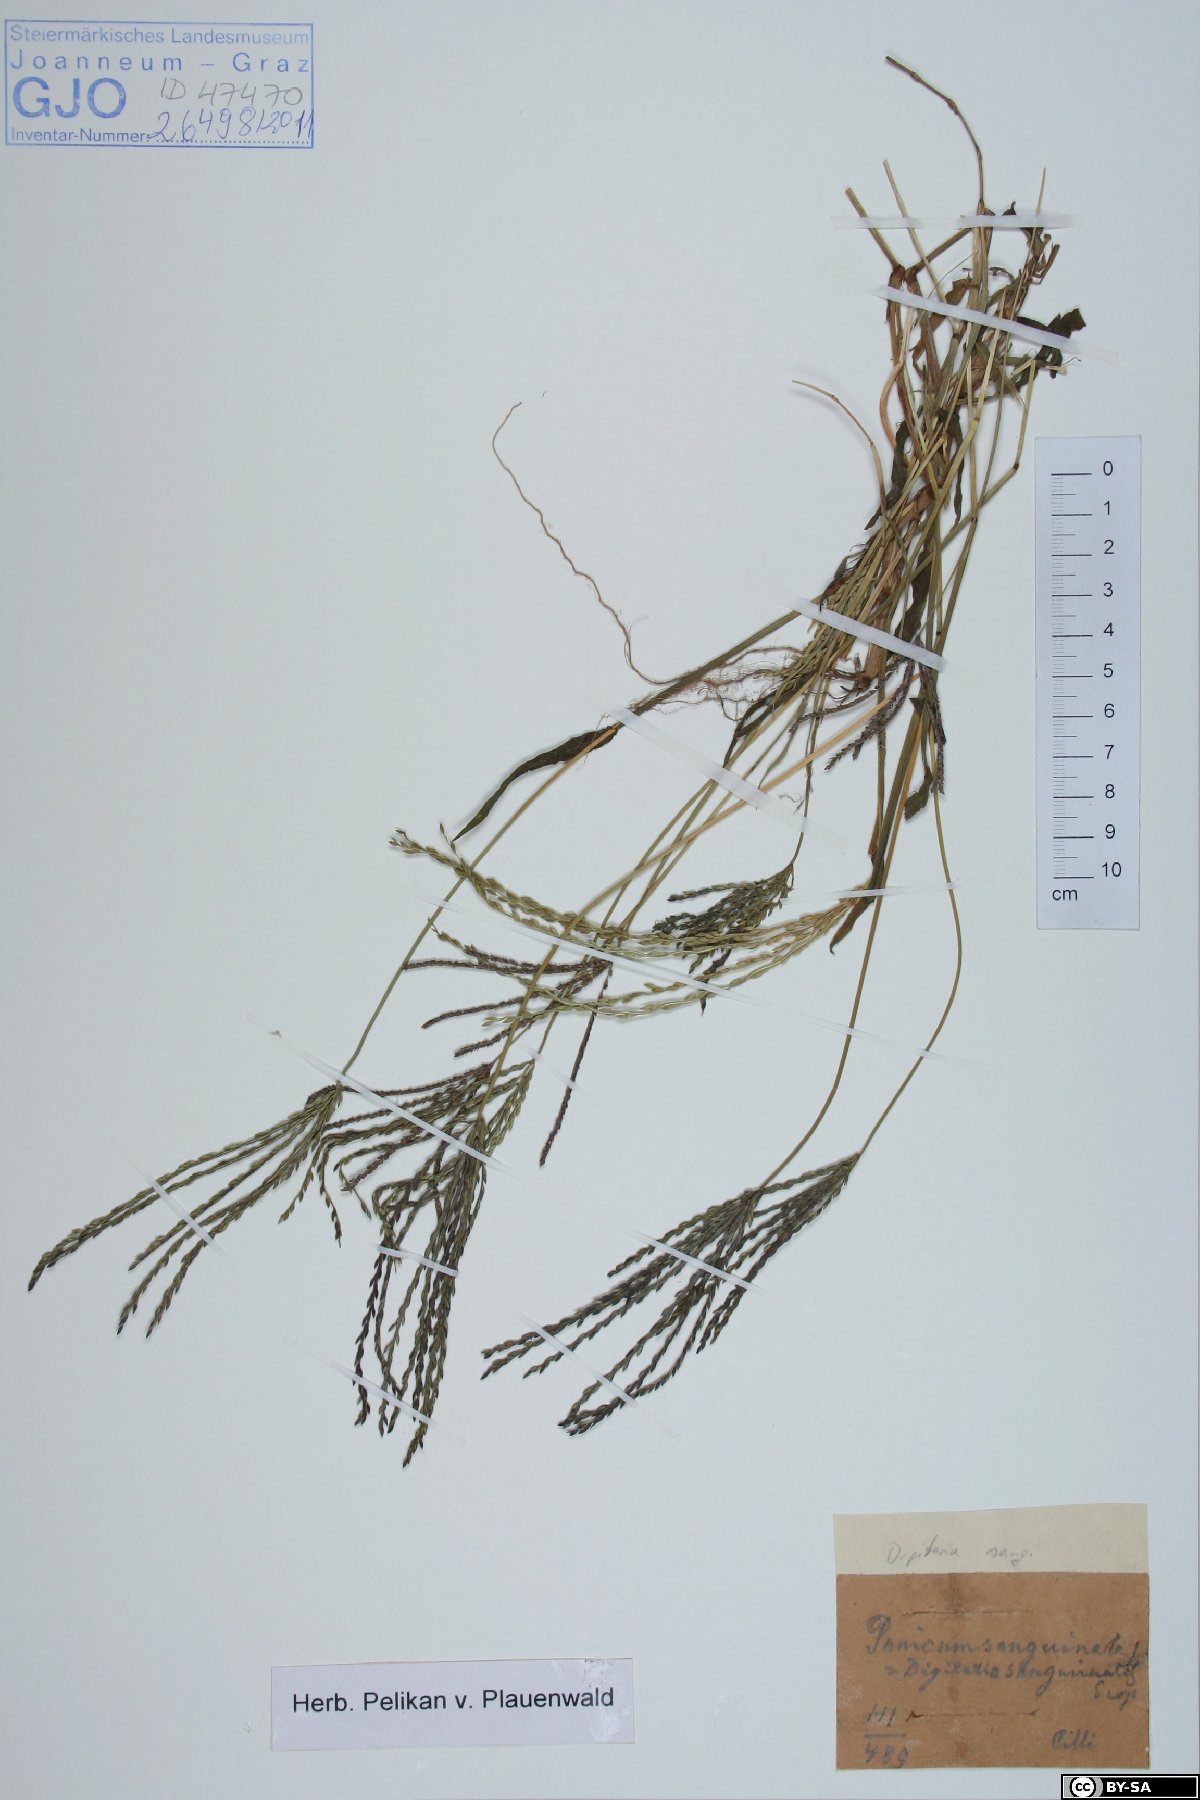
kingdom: Plantae
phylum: Tracheophyta
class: Liliopsida
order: Poales
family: Poaceae
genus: Digitaria
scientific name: Digitaria sanguinalis
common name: Hairy crabgrass
